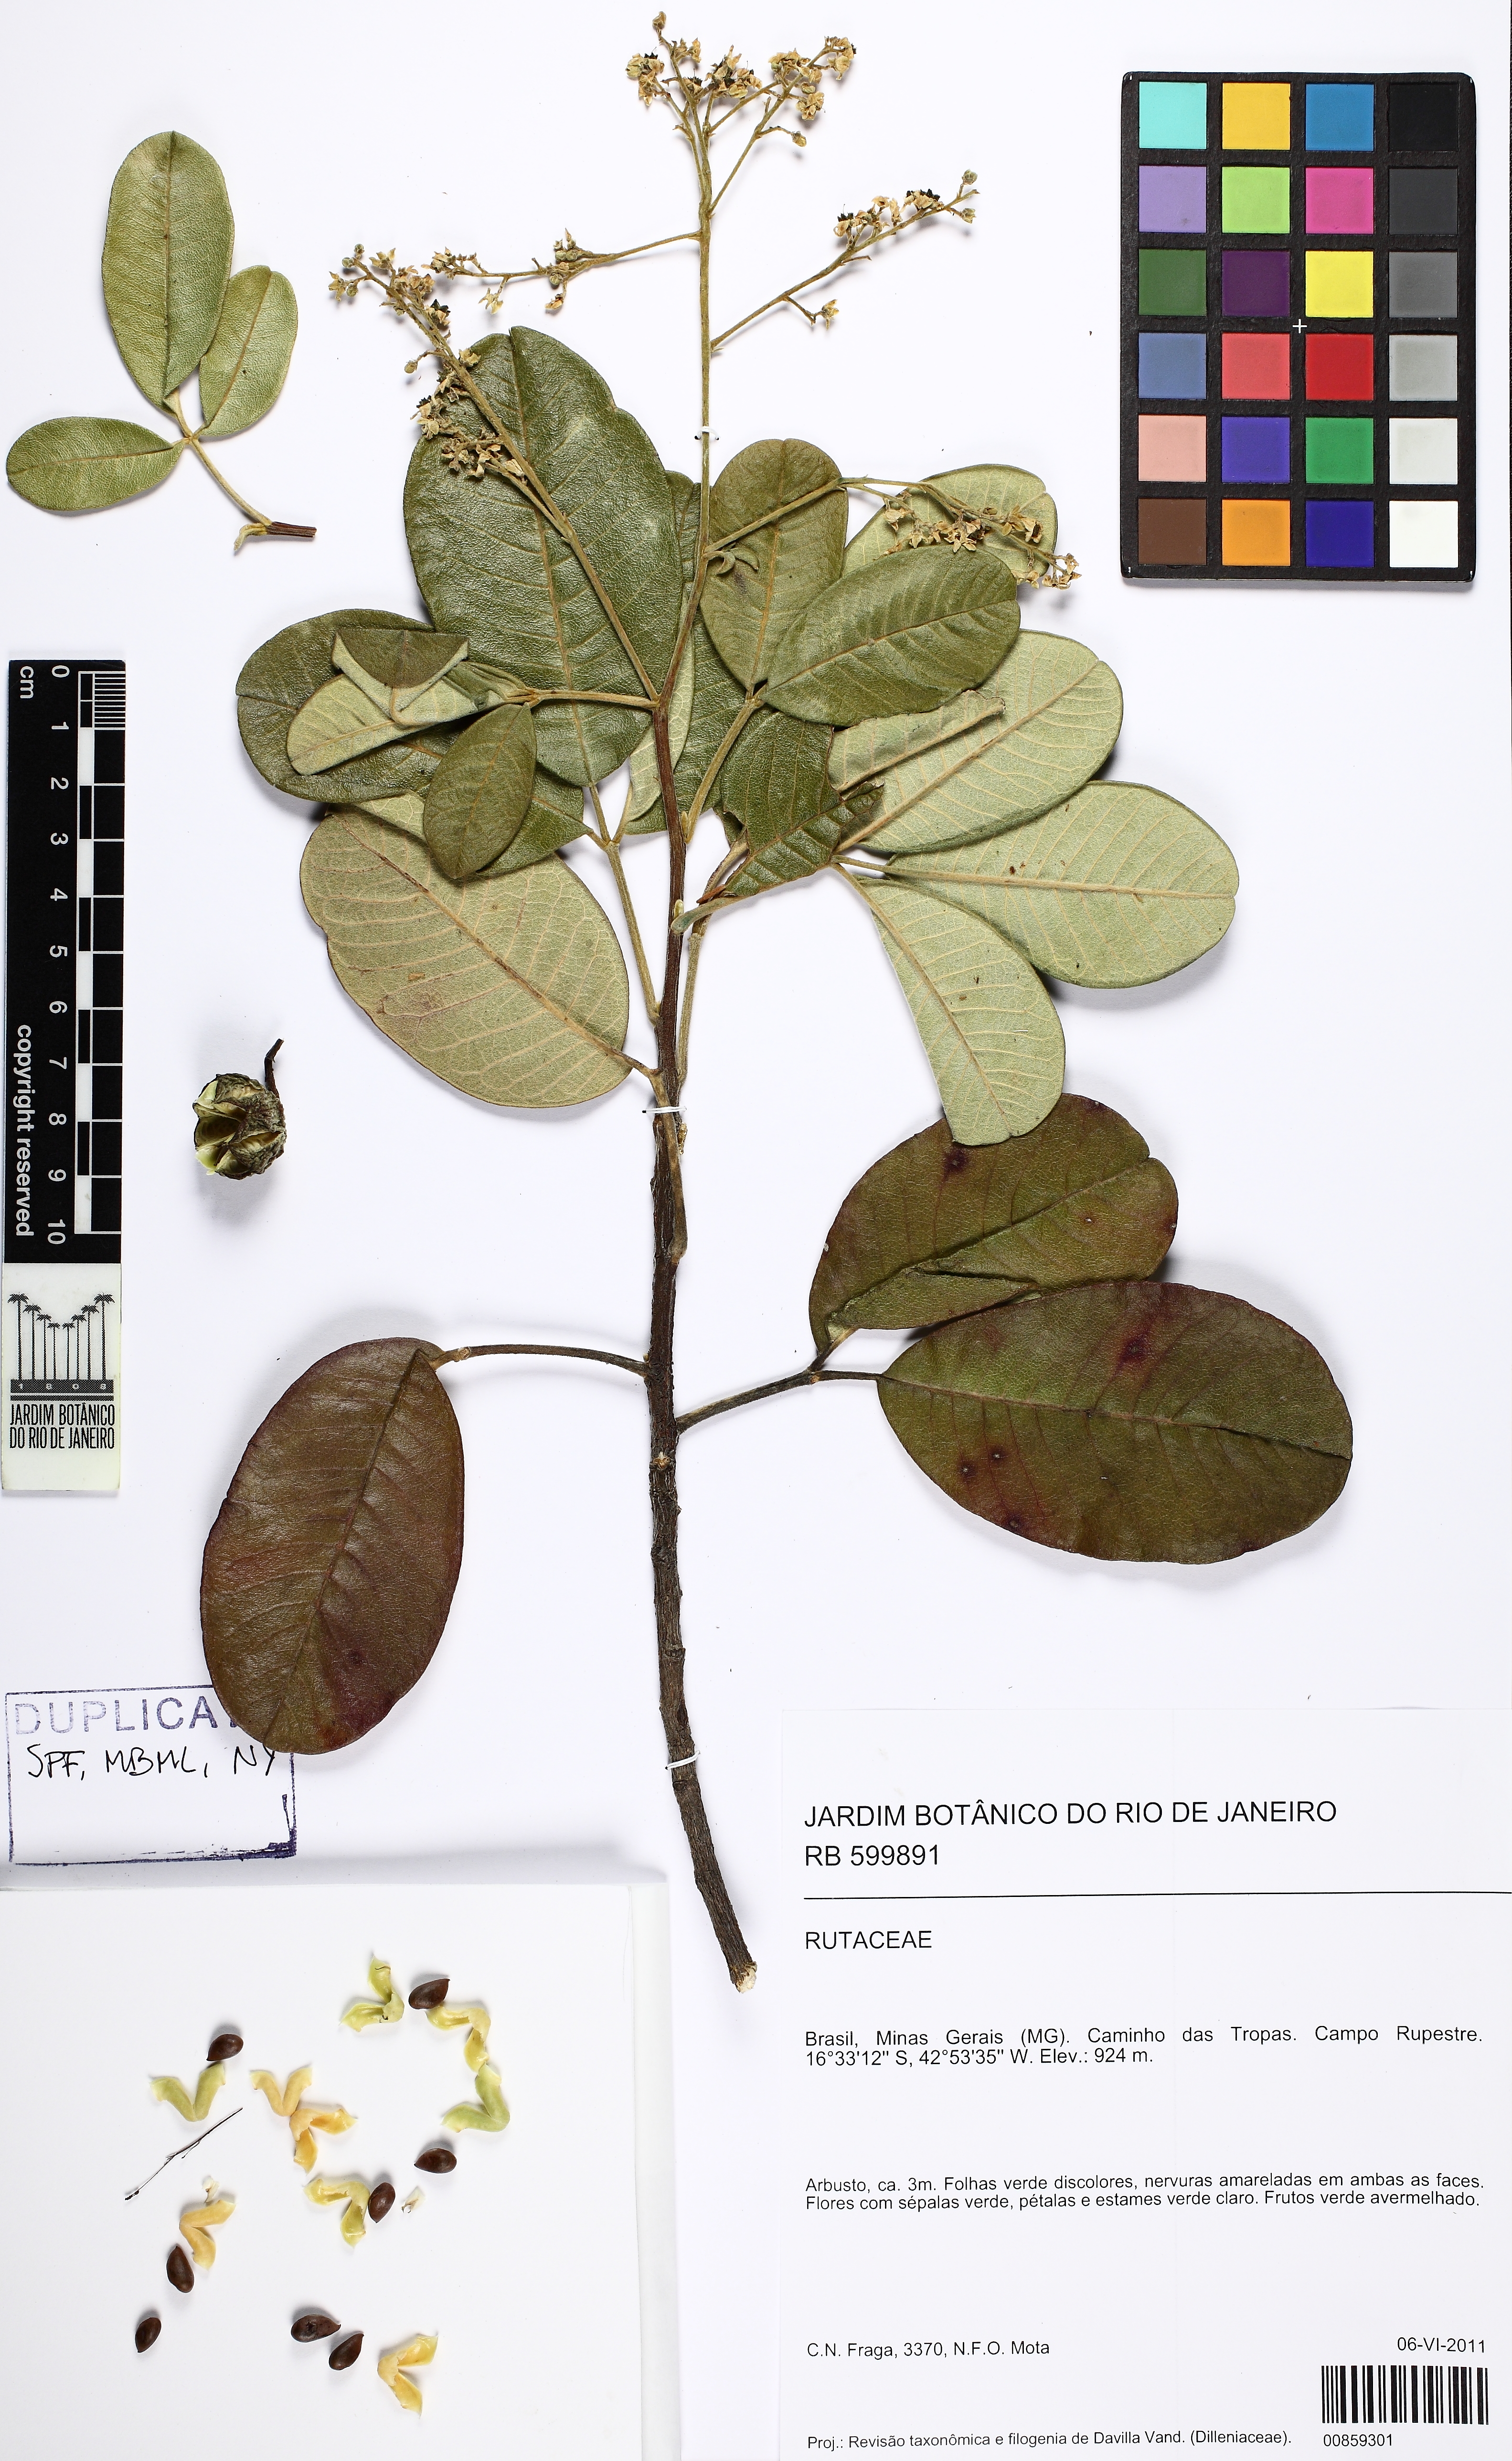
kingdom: Plantae
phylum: Tracheophyta
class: Magnoliopsida
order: Sapindales
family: Rutaceae
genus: Esenbeckia
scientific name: Esenbeckia irwiniana
